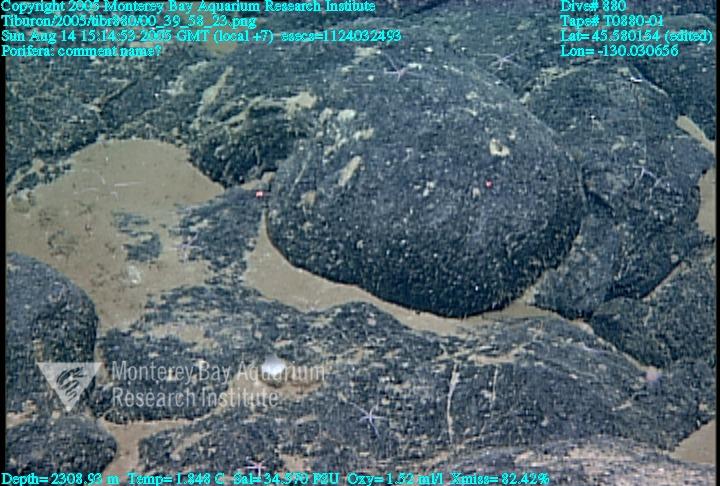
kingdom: Animalia
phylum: Porifera
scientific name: Porifera
